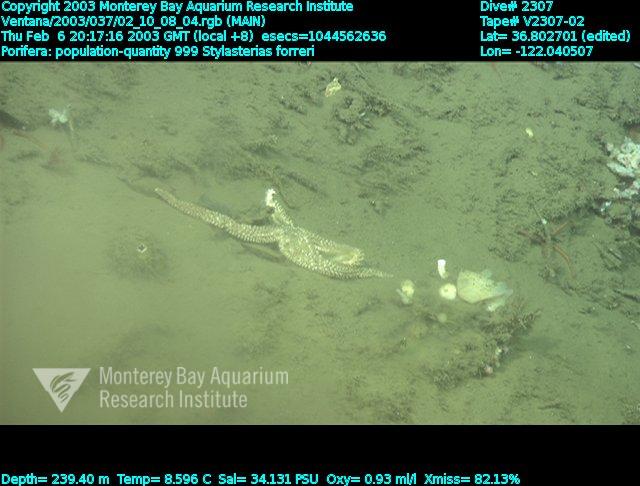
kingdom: Animalia
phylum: Porifera
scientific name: Porifera
